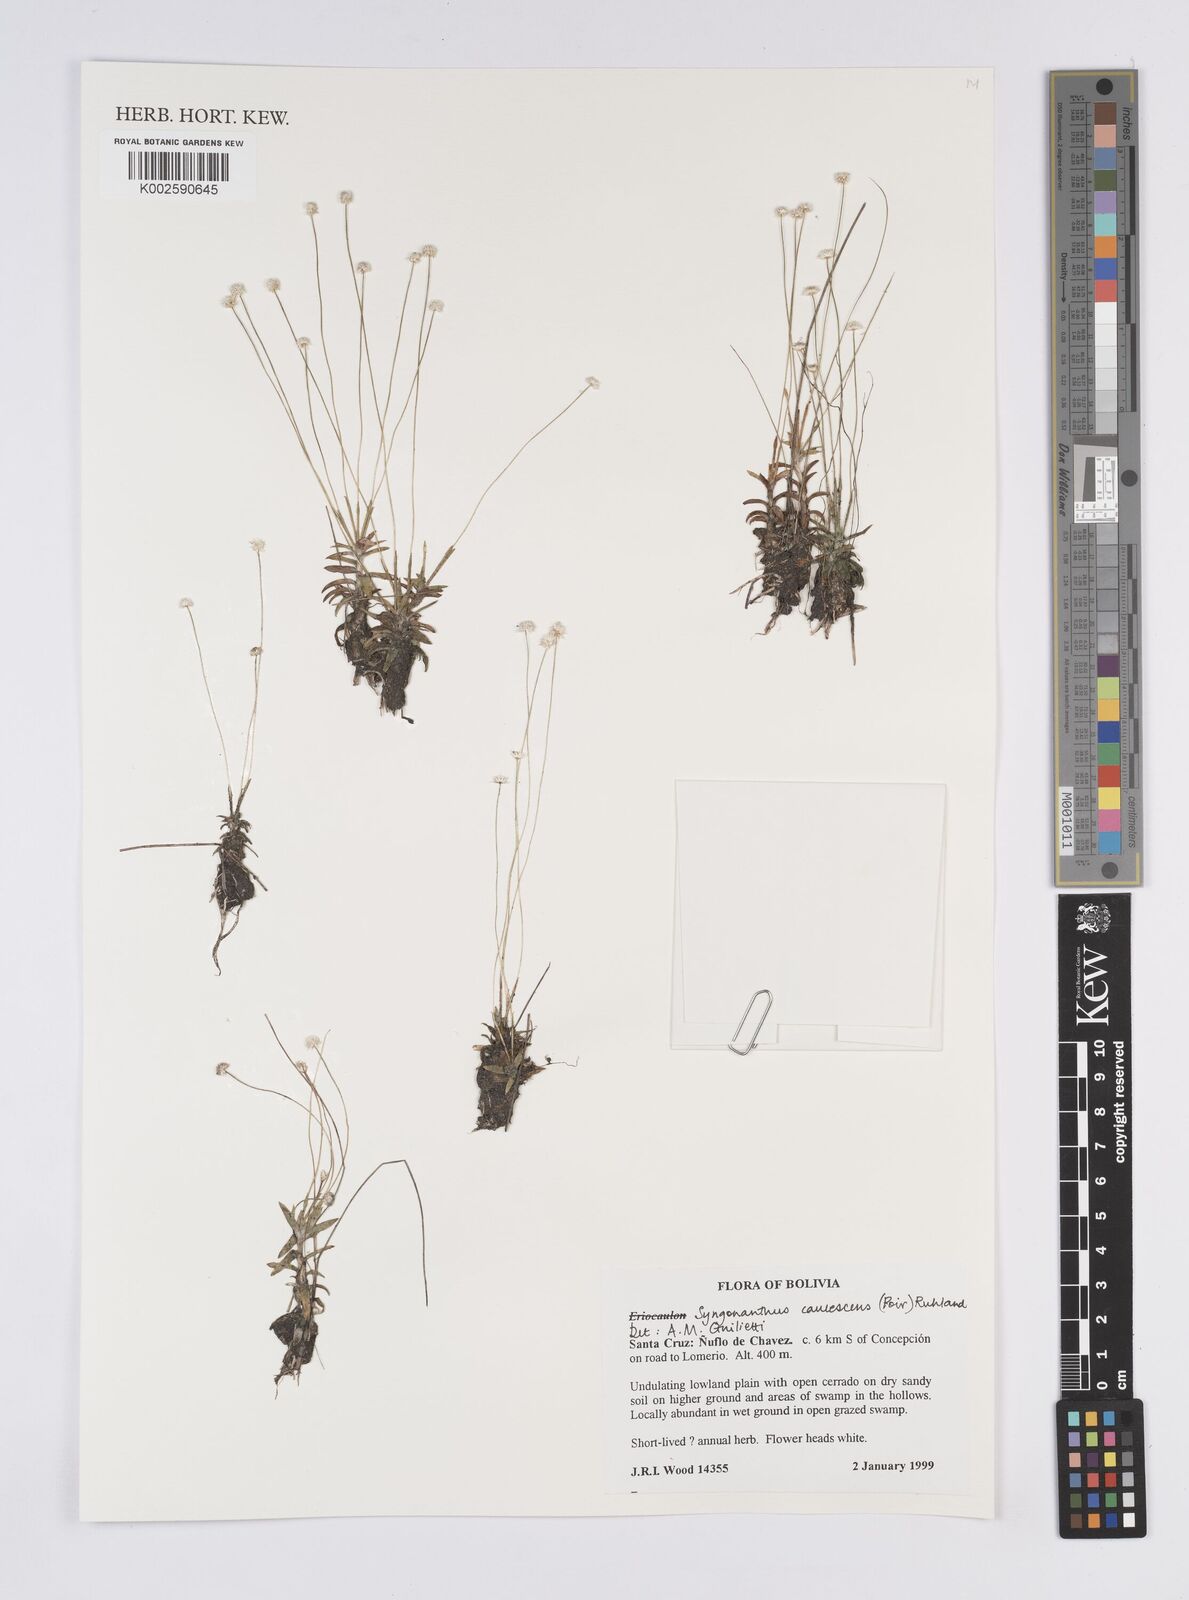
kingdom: Plantae
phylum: Tracheophyta
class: Liliopsida
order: Poales
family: Eriocaulaceae
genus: Syngonanthus
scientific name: Syngonanthus caulescens
